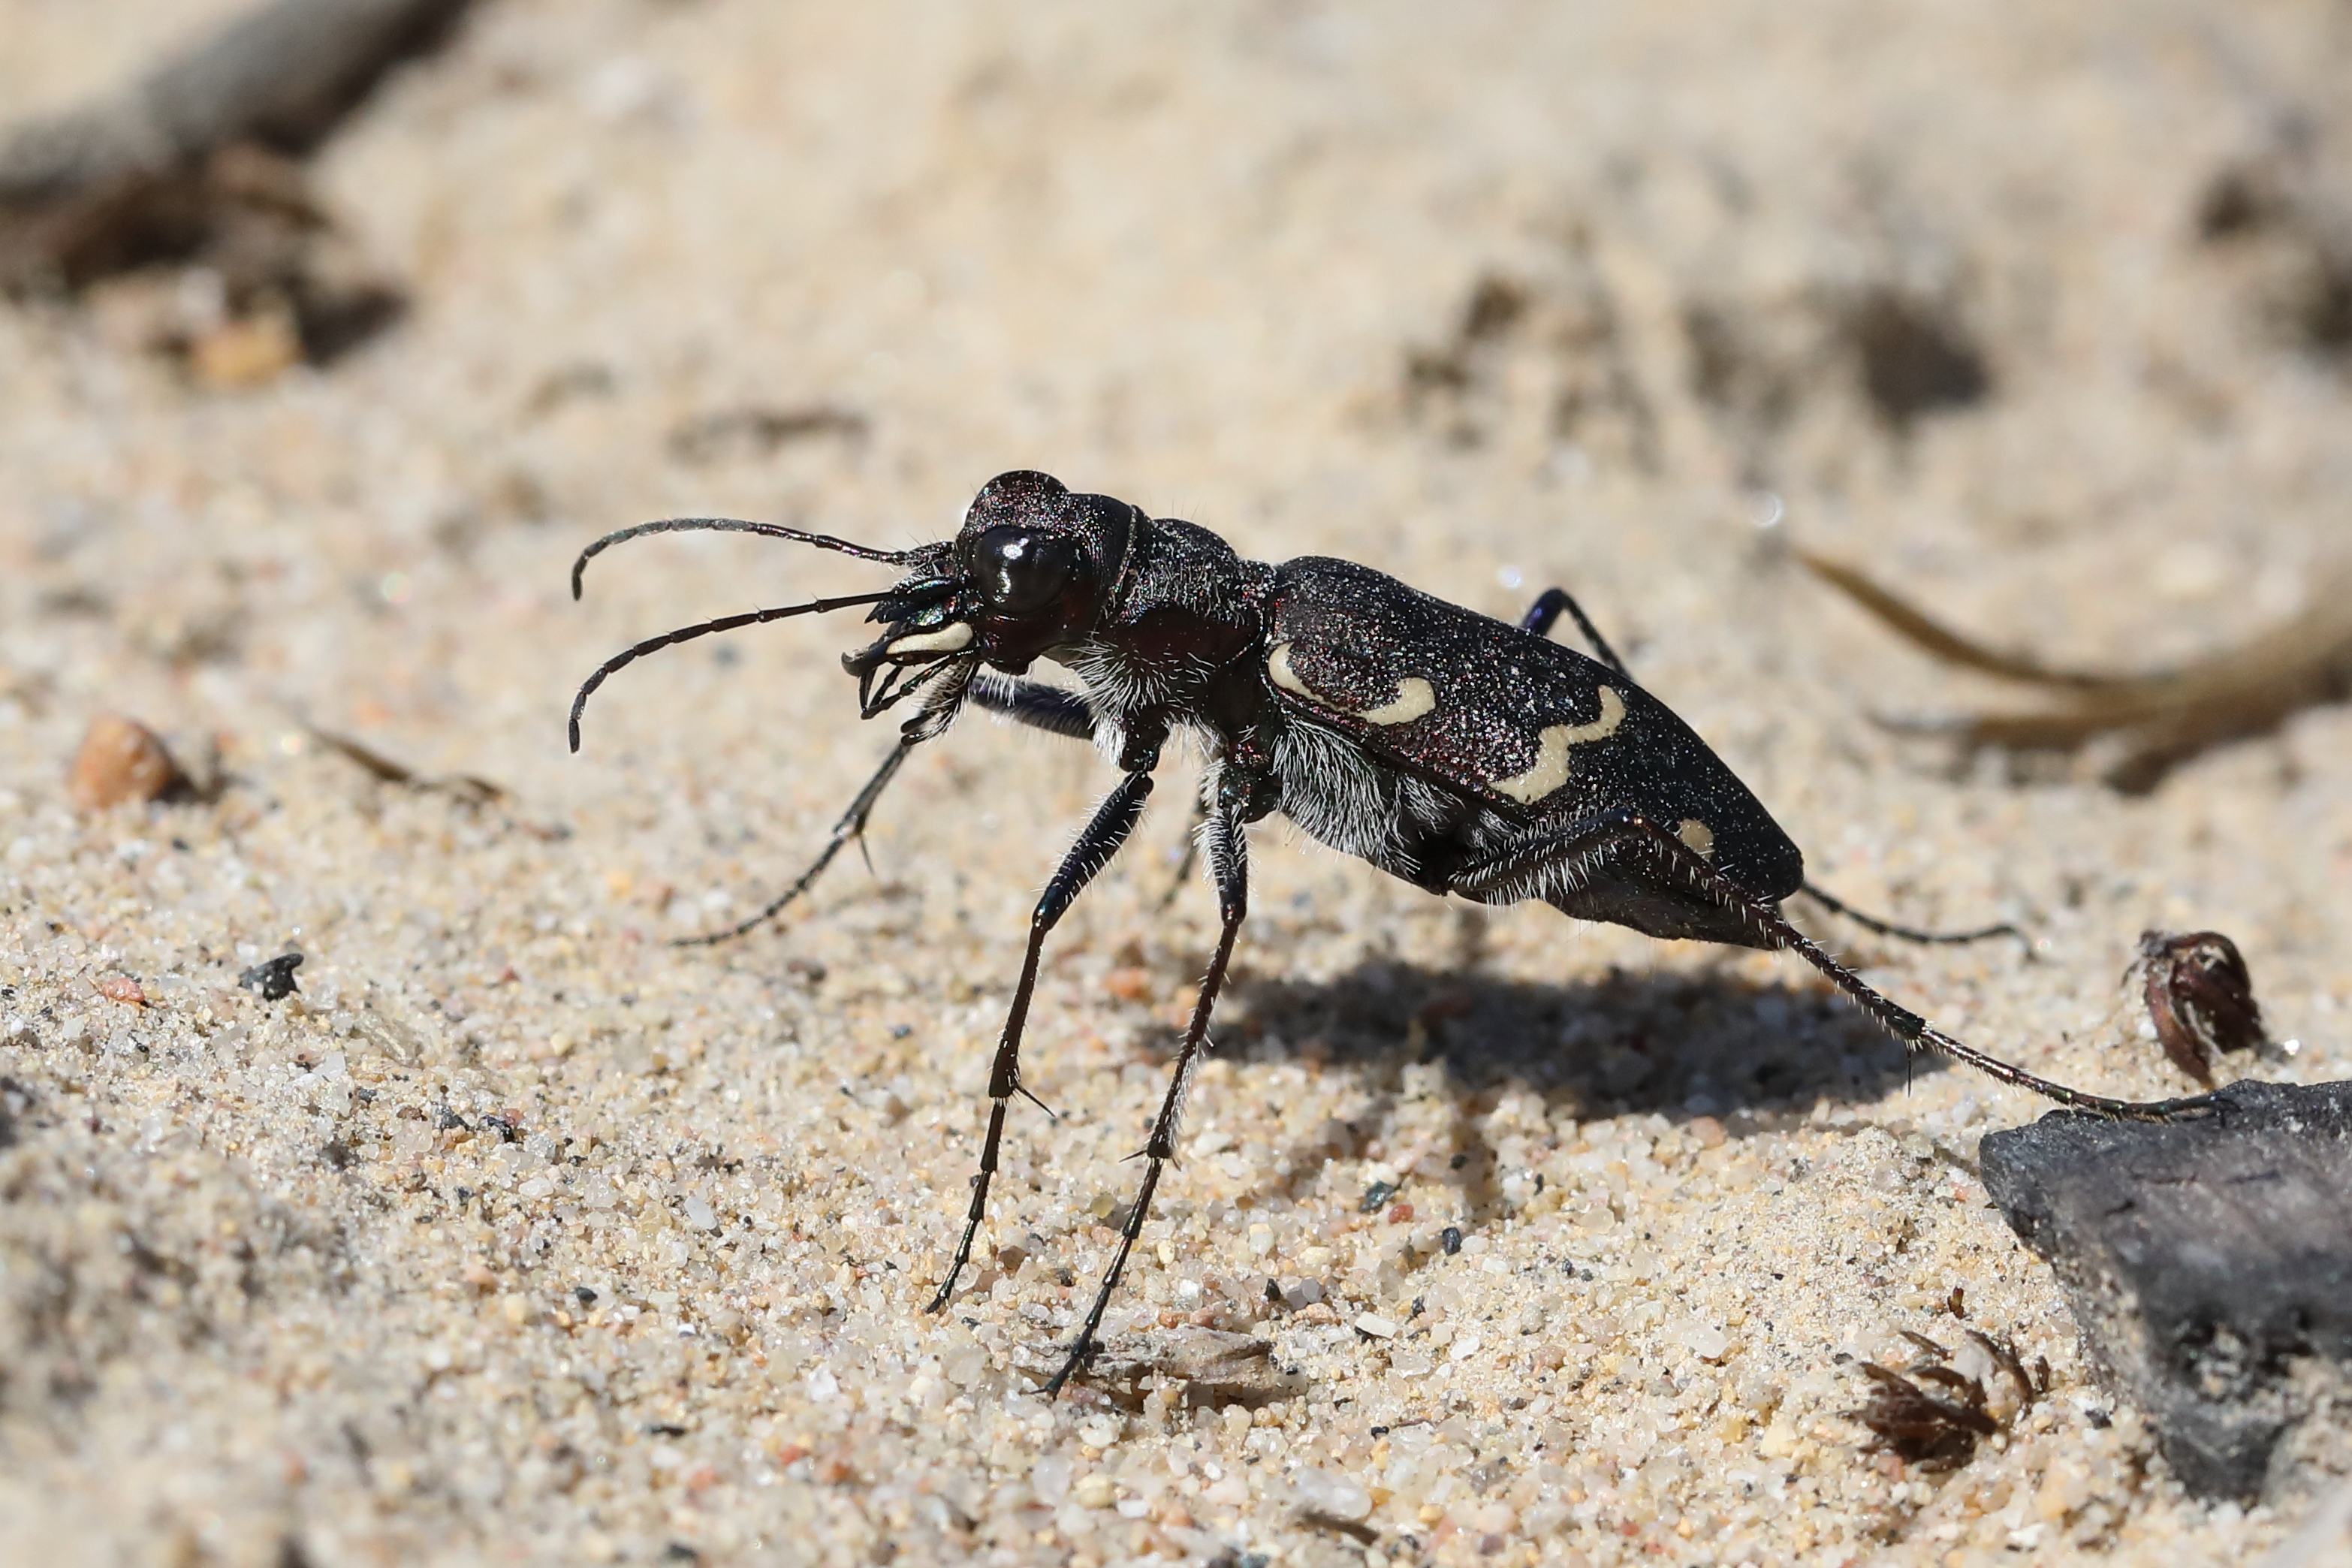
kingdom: Animalia
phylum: Arthropoda
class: Insecta
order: Coleoptera
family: Carabidae
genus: Cicindela
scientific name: Cicindela sylvatica
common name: Heath tiger beetle
